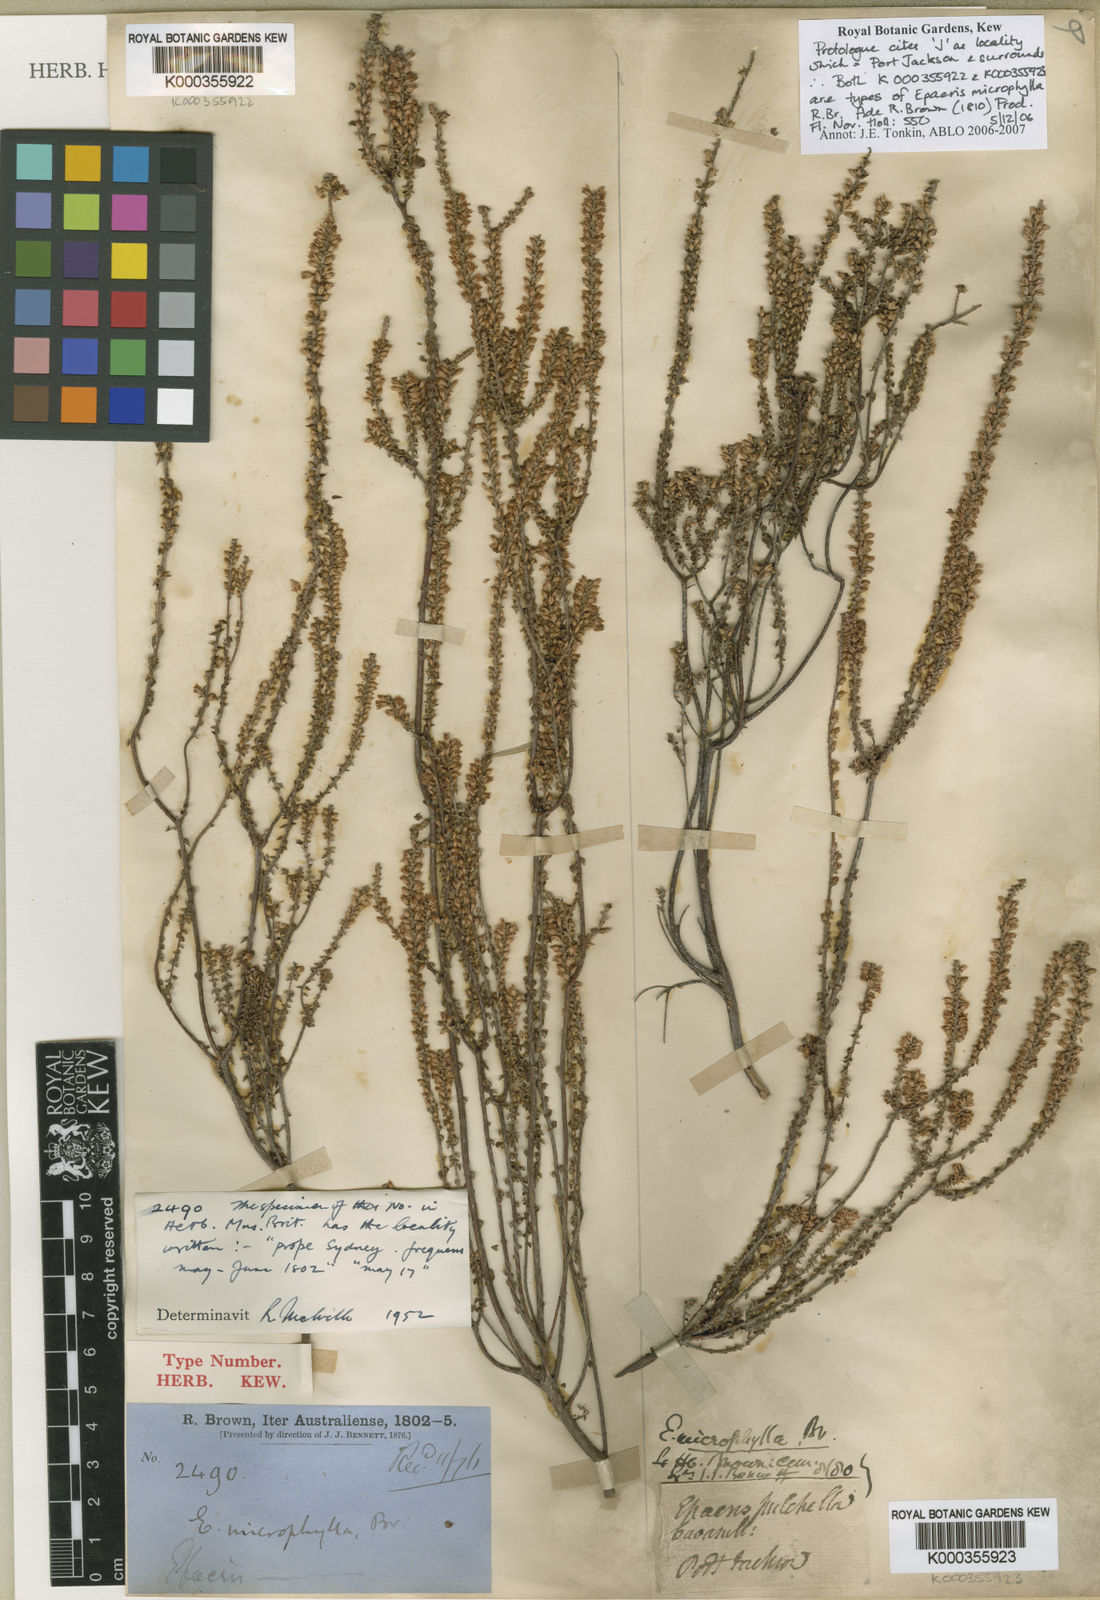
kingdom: Plantae
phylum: Tracheophyta
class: Magnoliopsida
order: Ericales
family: Ericaceae
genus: Epacris
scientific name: Epacris microphylla
